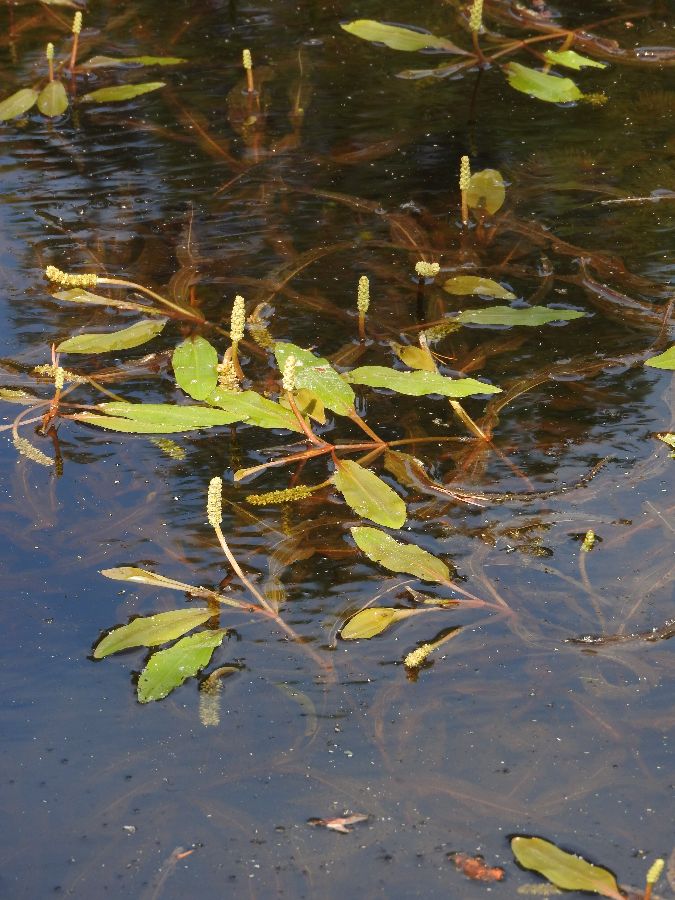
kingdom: Plantae
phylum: Tracheophyta
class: Liliopsida
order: Alismatales
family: Potamogetonaceae
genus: Potamogeton
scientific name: Potamogeton alpinus
